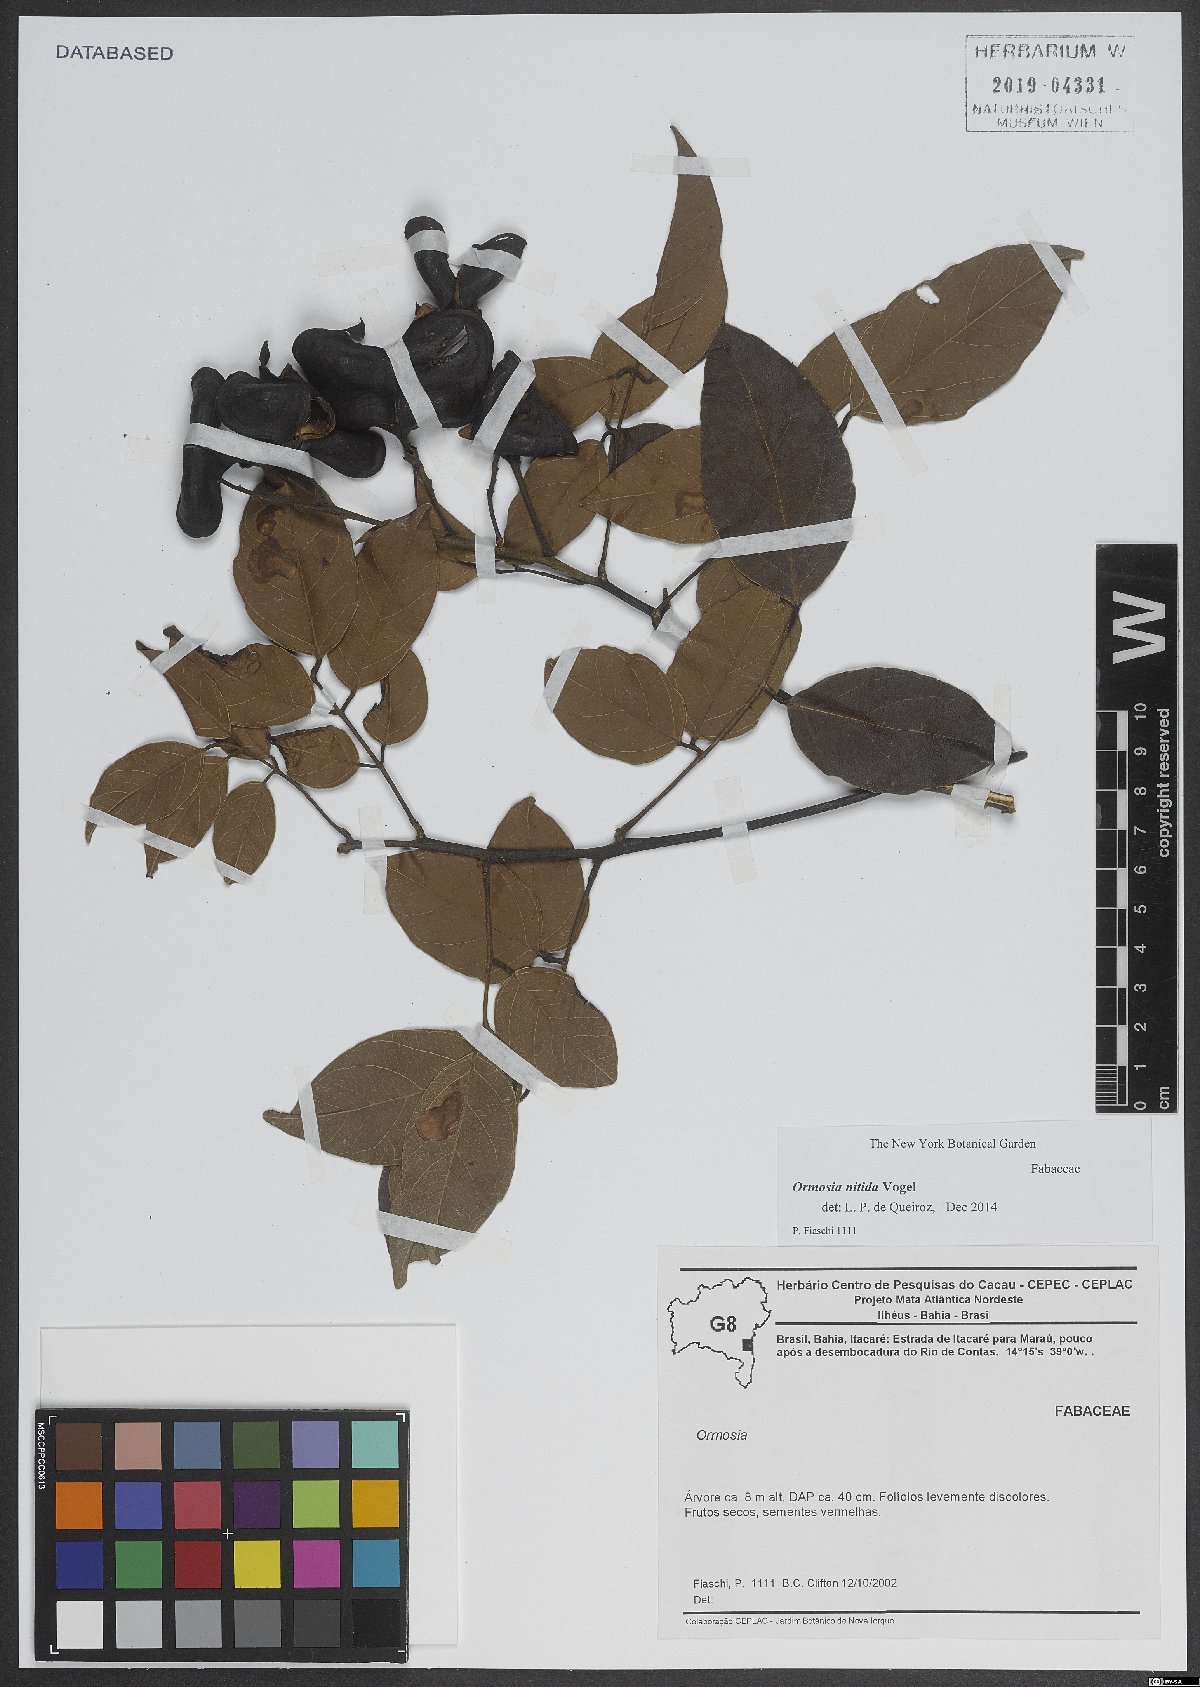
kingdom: Plantae
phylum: Tracheophyta
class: Magnoliopsida
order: Fabales
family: Fabaceae
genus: Ormosia
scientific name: Ormosia nitida
